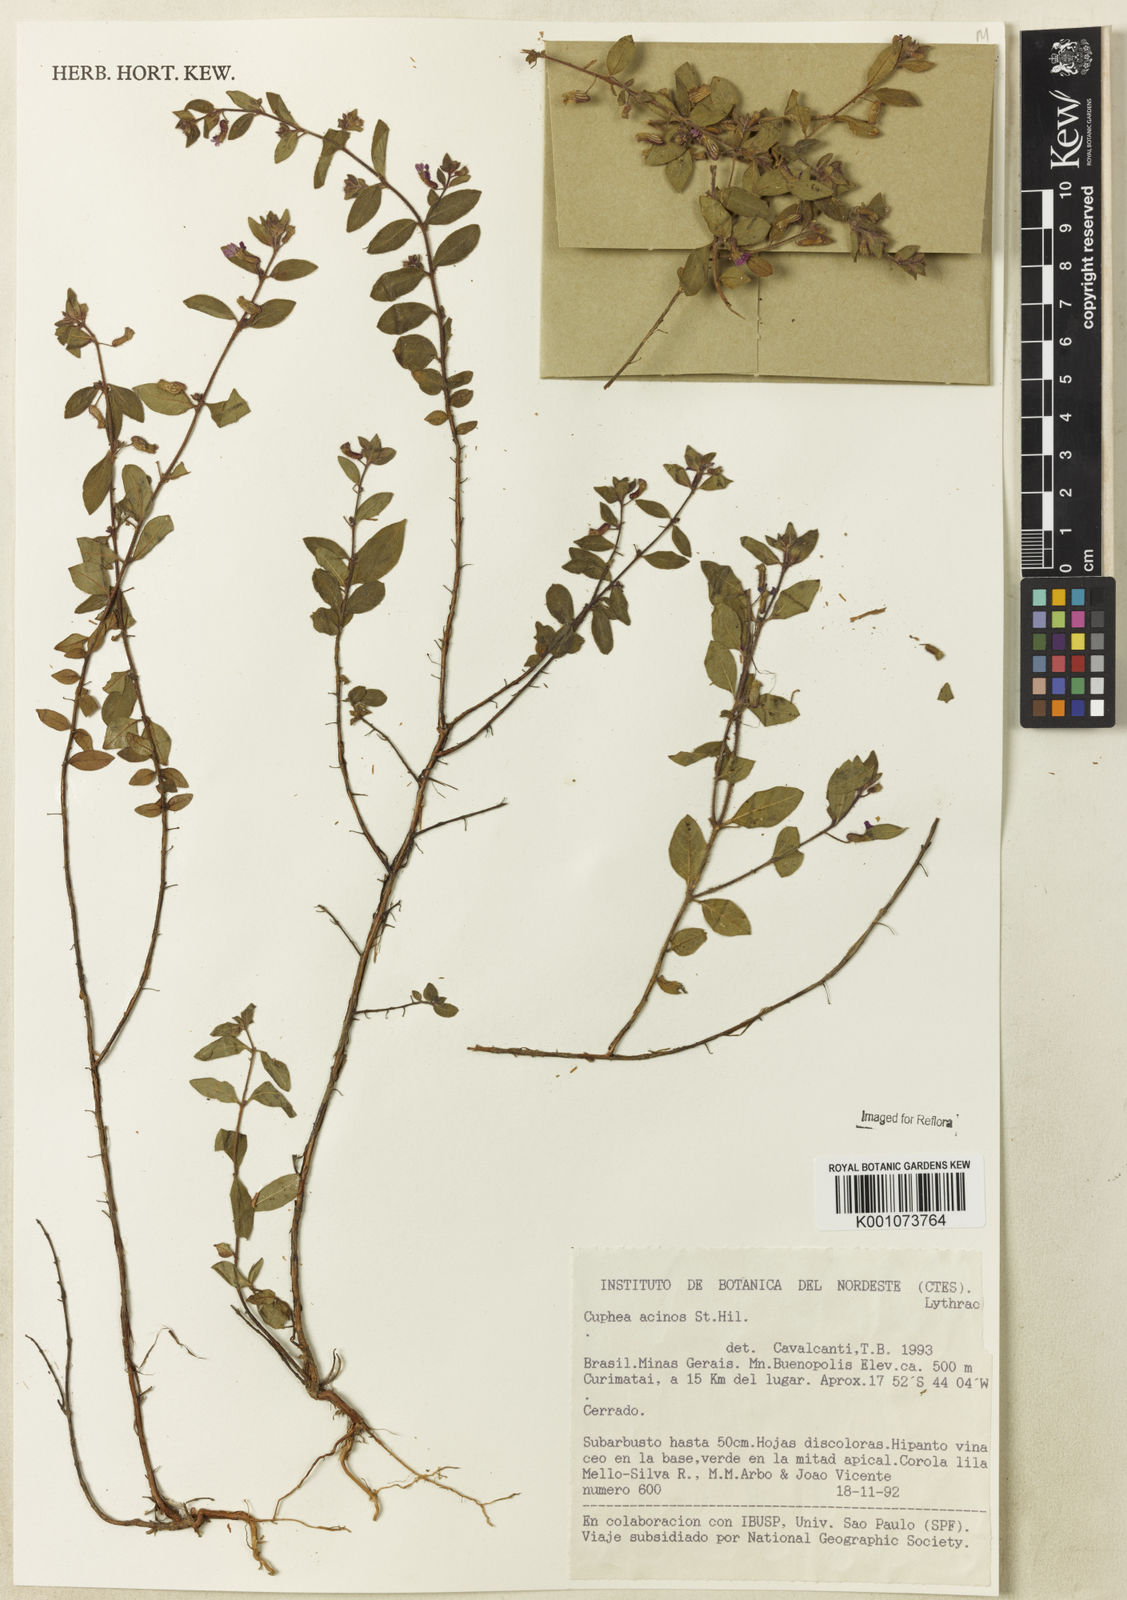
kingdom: Plantae
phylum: Tracheophyta
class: Magnoliopsida
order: Myrtales
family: Lythraceae
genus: Cuphea
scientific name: Cuphea acinos
